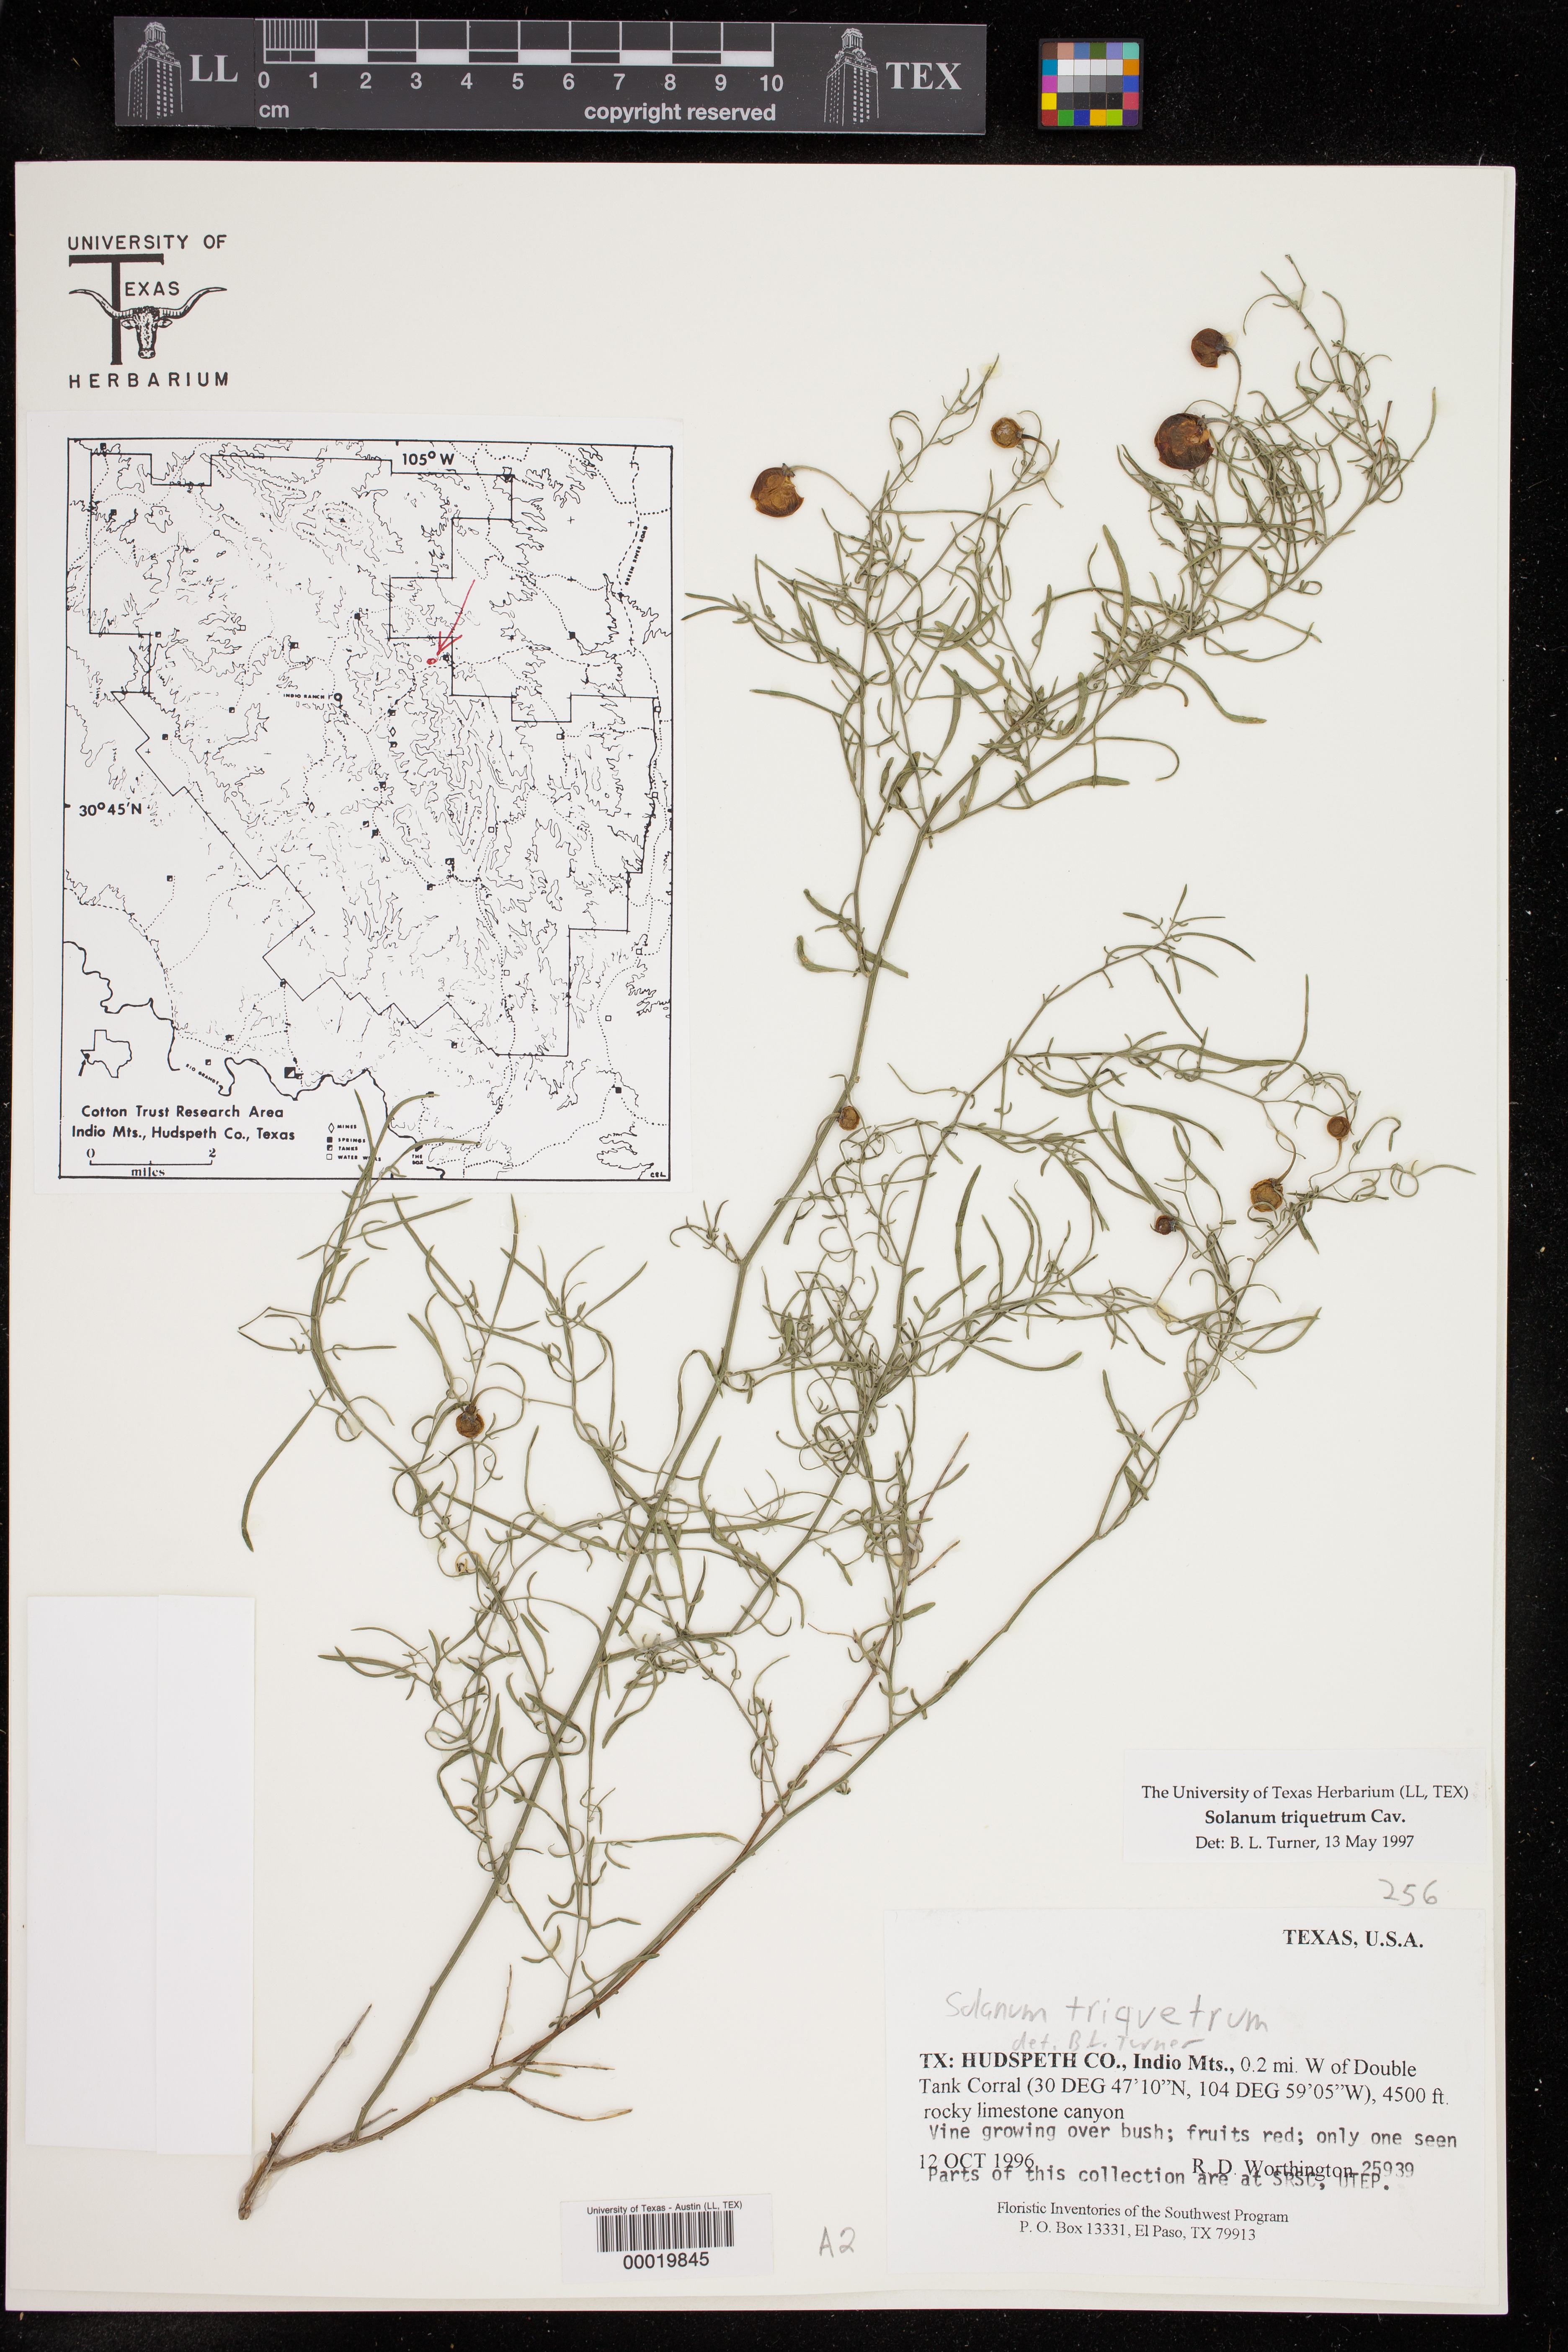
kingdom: Plantae
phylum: Tracheophyta
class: Magnoliopsida
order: Solanales
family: Solanaceae
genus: Solanum
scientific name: Solanum triquetrum
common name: Texas nightshade
